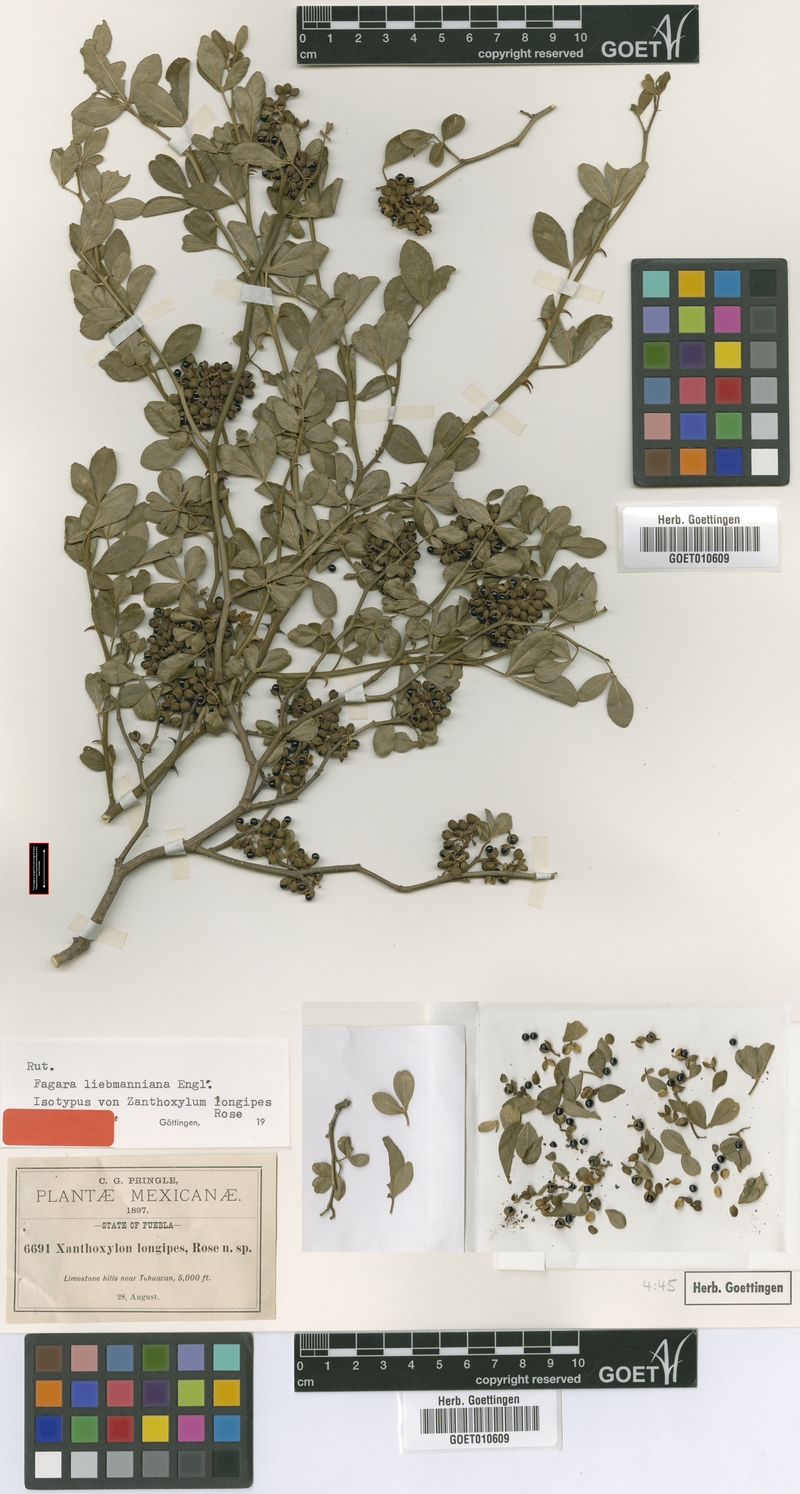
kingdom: Plantae
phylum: Tracheophyta
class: Magnoliopsida
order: Sapindales
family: Rutaceae
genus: Zanthoxylum
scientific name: Zanthoxylum limoncello
